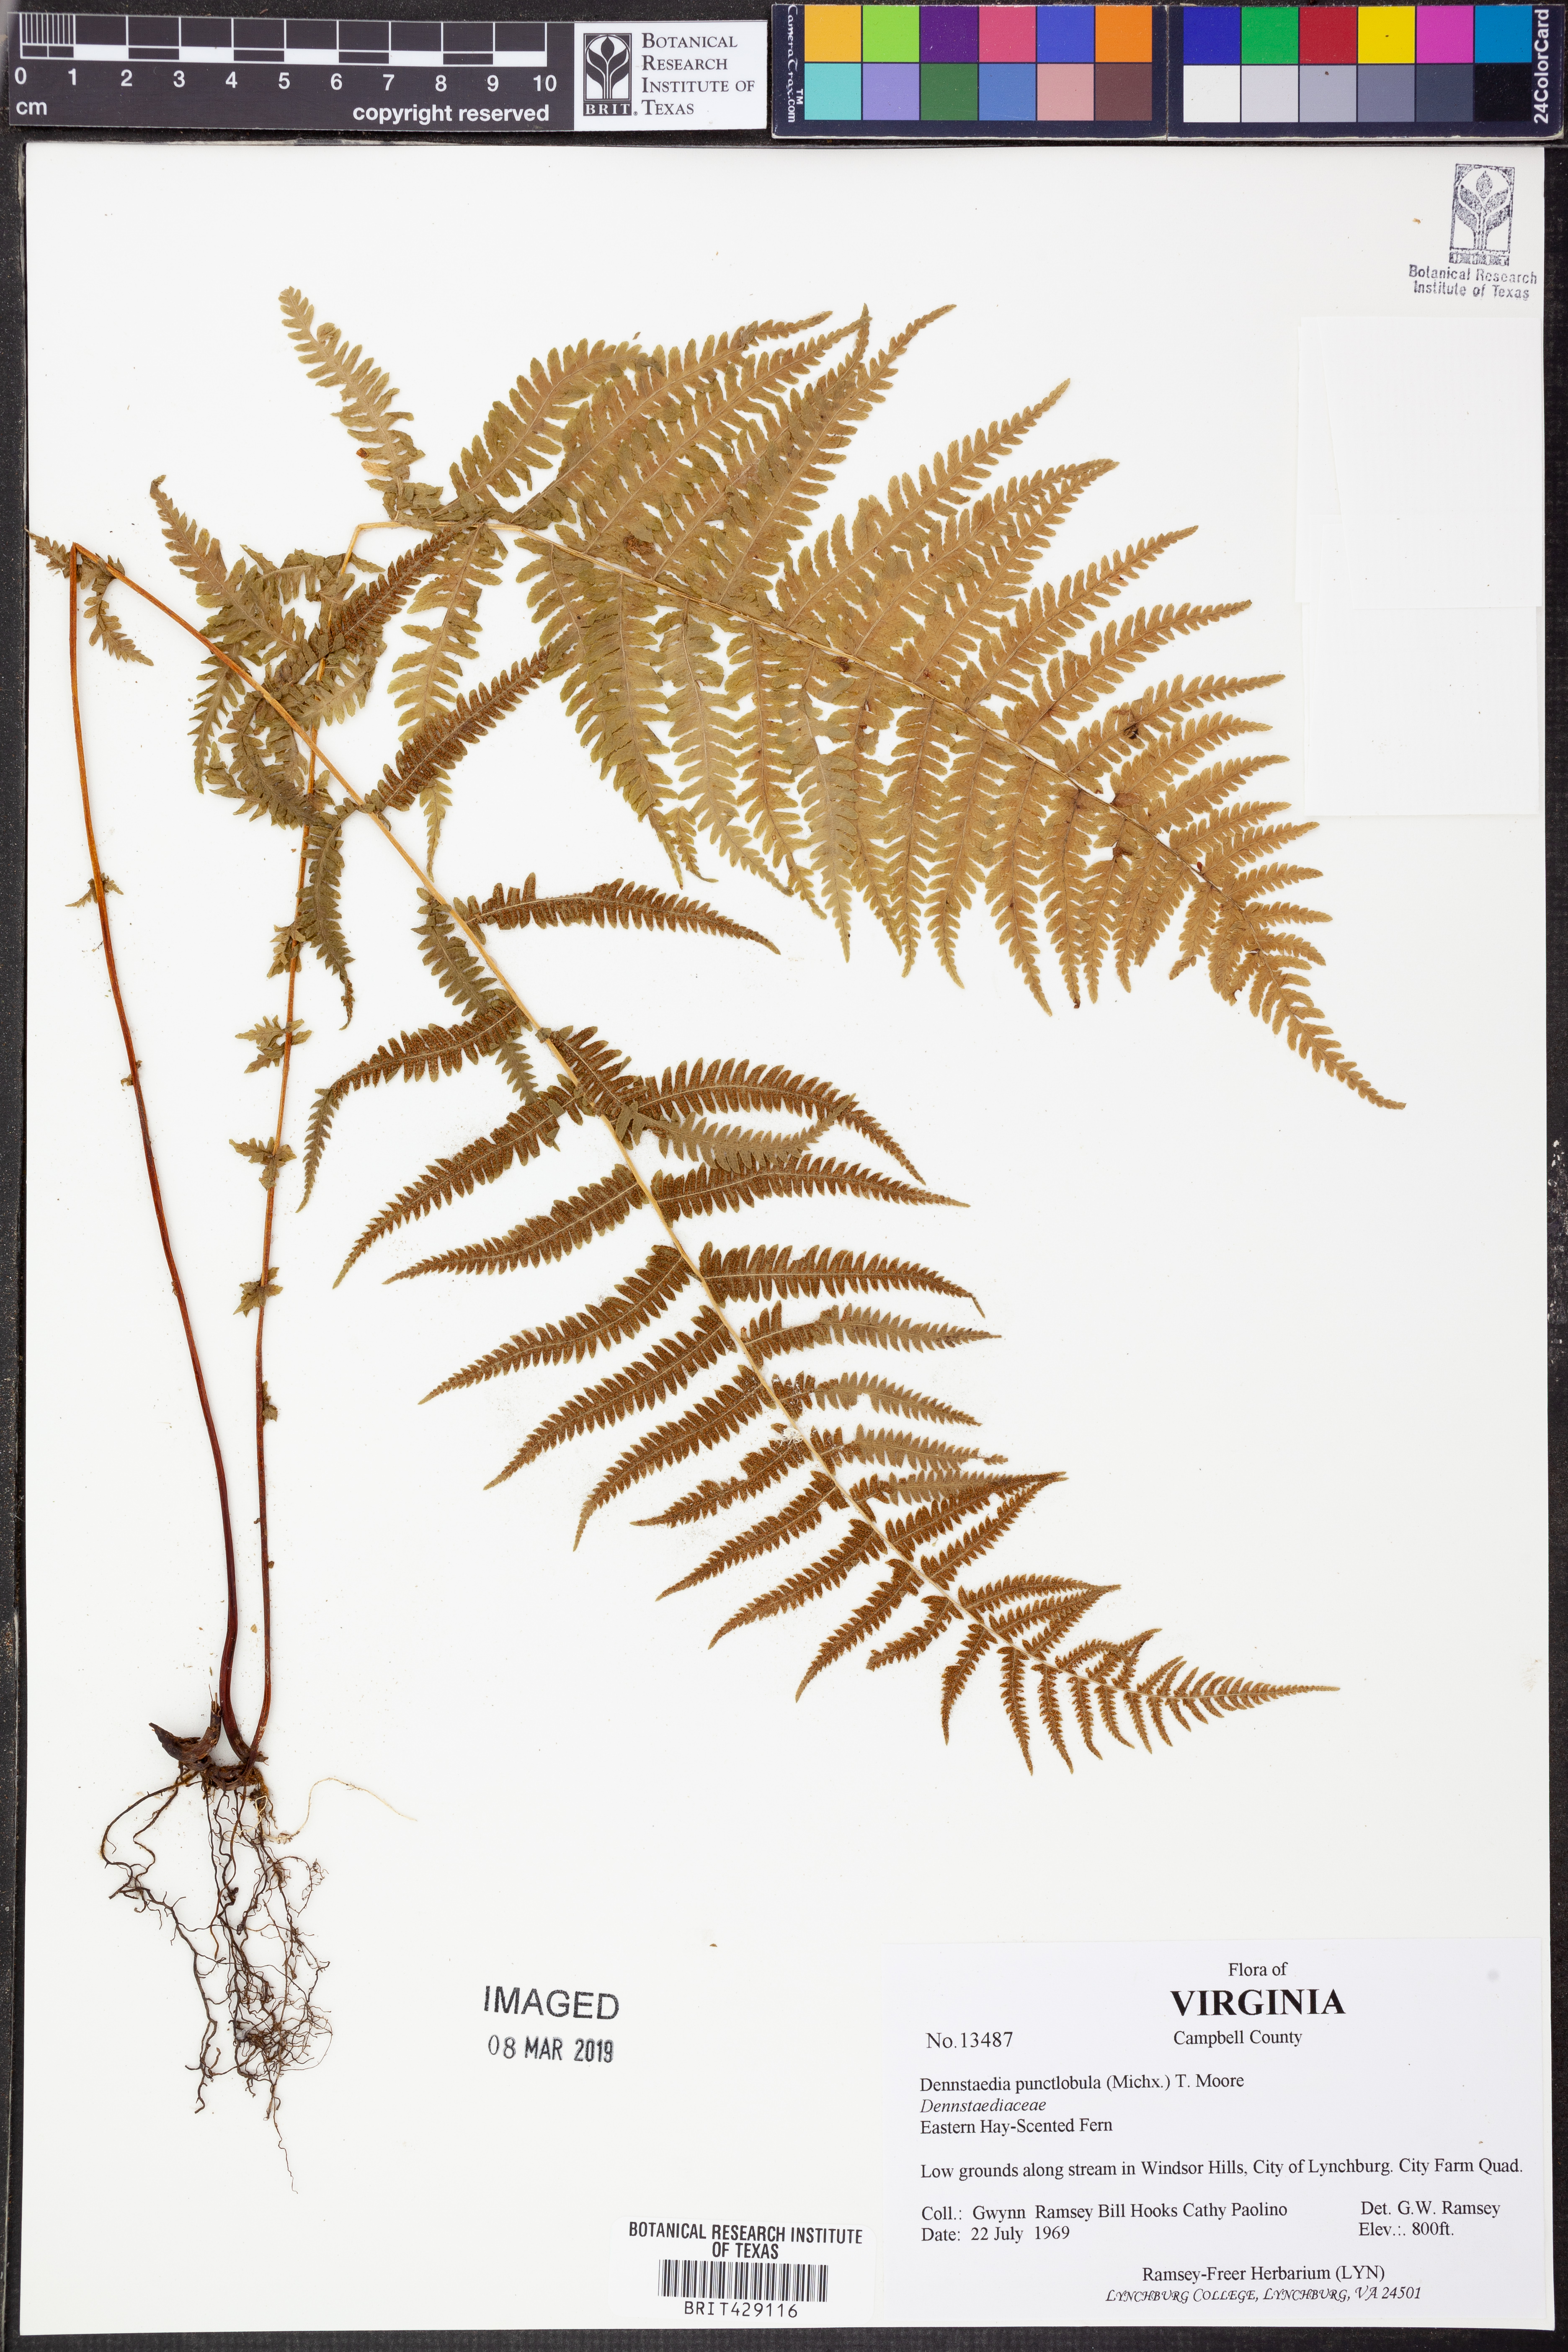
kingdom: Plantae
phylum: Tracheophyta
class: Polypodiopsida
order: Polypodiales
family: Dennstaedtiaceae
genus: Sitobolium
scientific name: Sitobolium punctilobum
